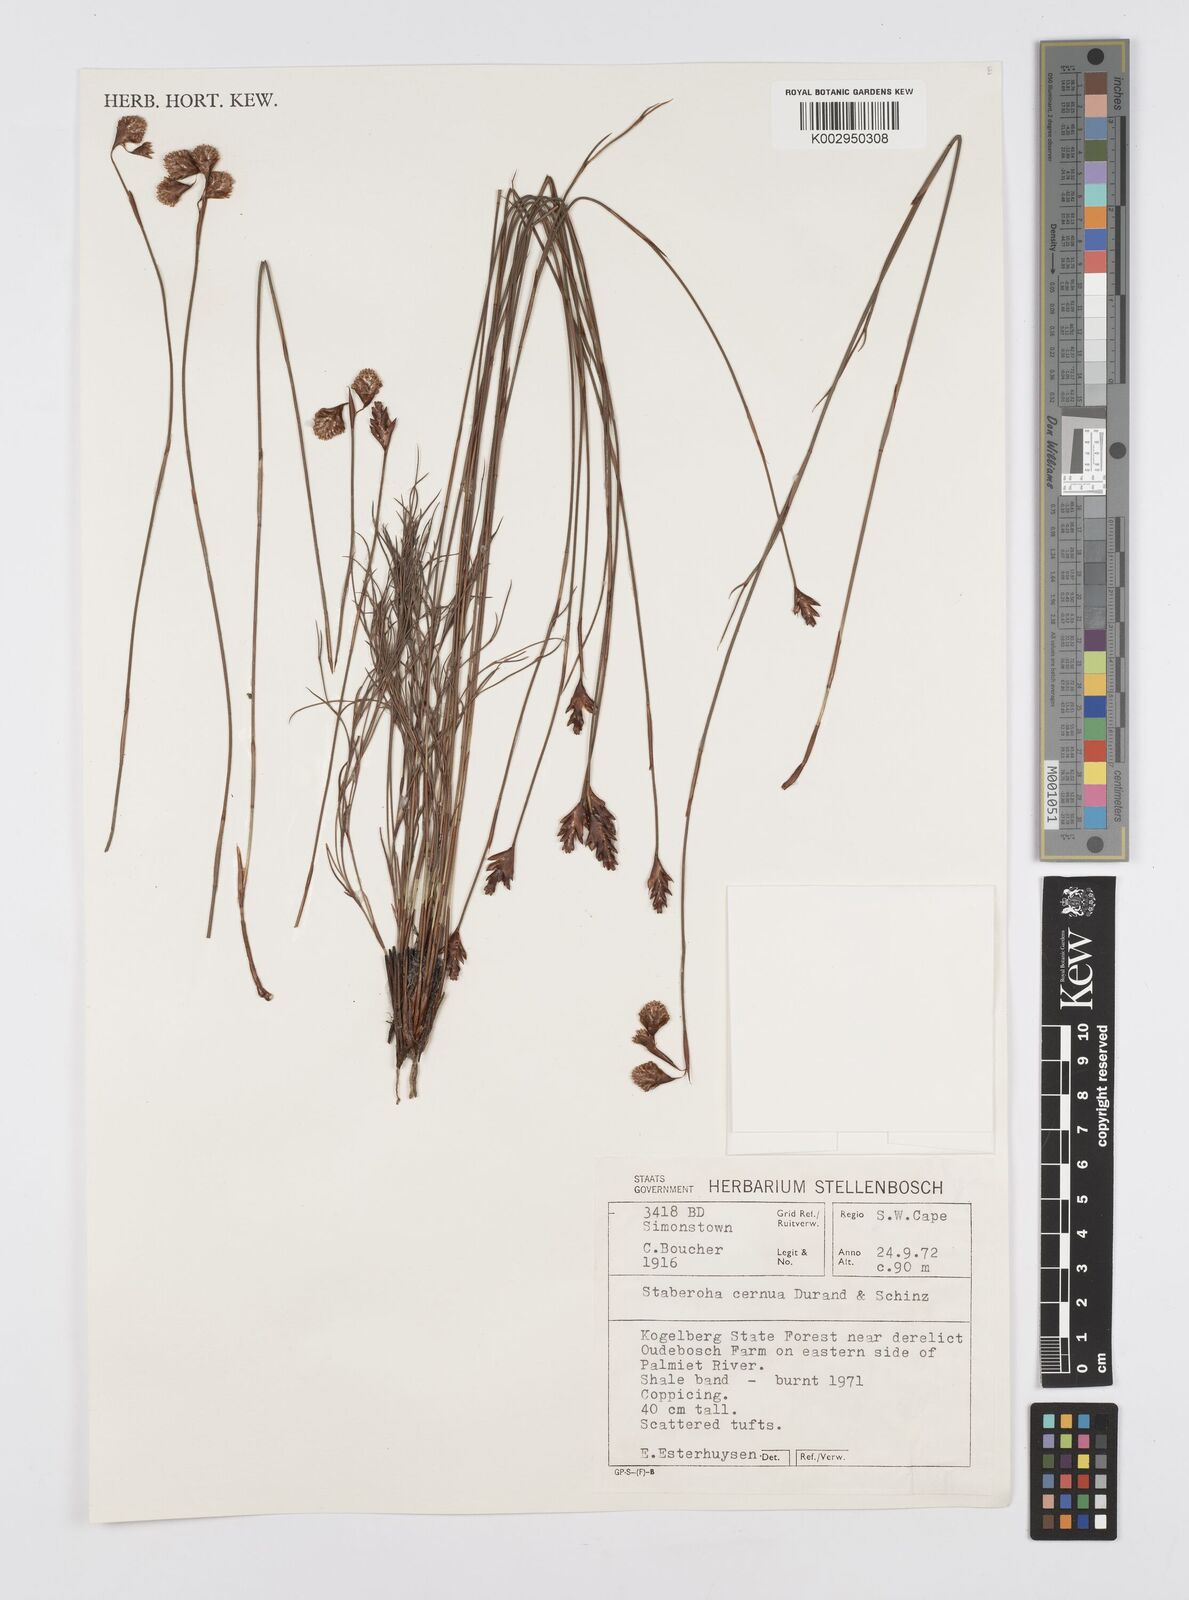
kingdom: Plantae
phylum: Tracheophyta
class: Liliopsida
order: Poales
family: Restionaceae
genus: Staberoha
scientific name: Staberoha cernua
